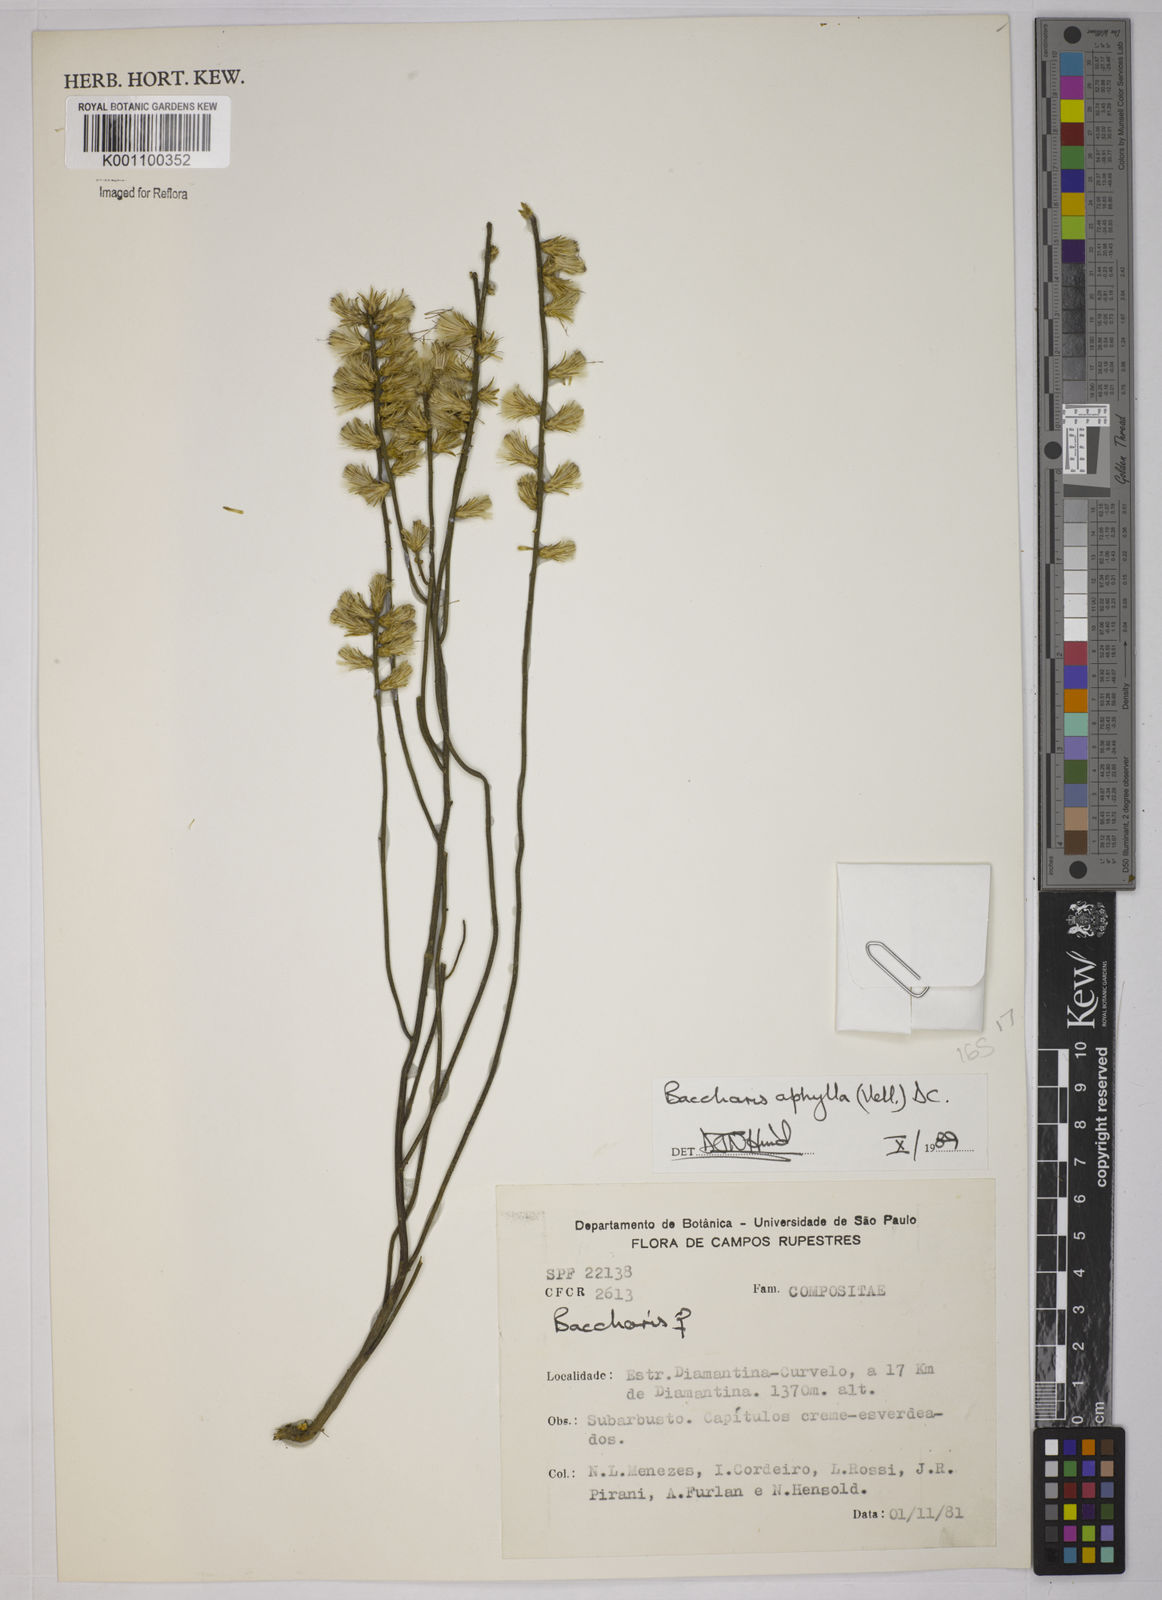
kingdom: Plantae
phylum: Tracheophyta
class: Magnoliopsida
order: Asterales
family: Asteraceae
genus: Baccharis
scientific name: Baccharis aphylla
